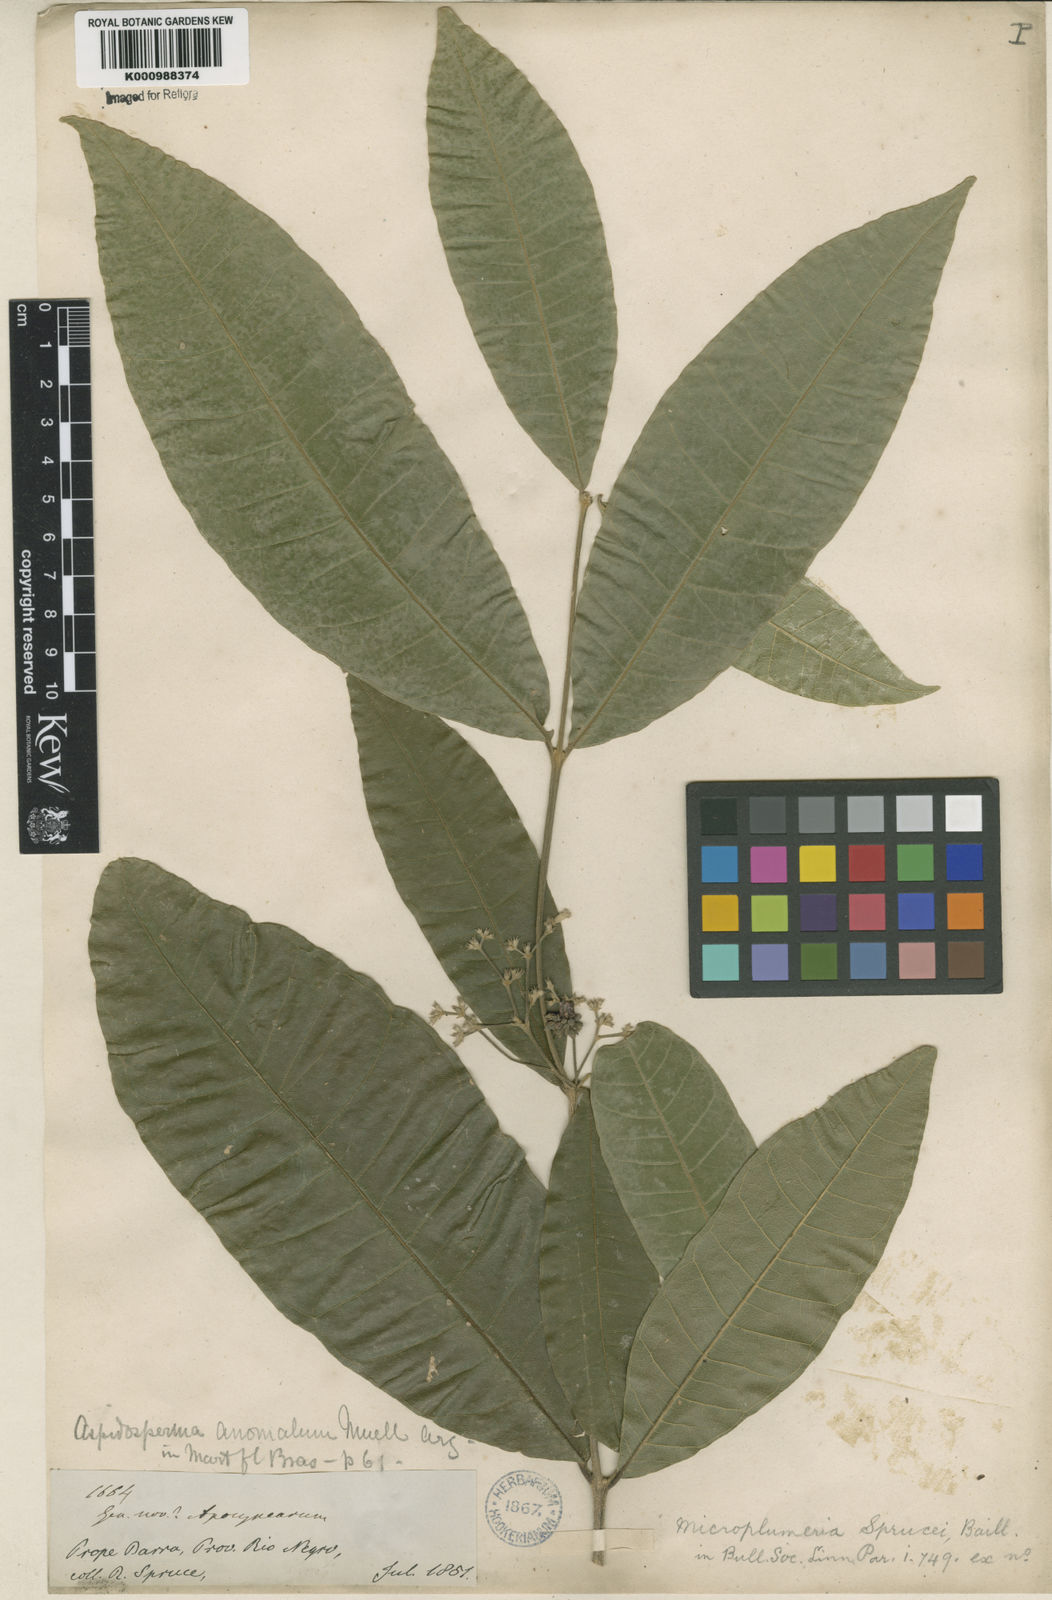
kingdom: Plantae
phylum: Tracheophyta
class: Magnoliopsida
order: Gentianales
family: Apocynaceae
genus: Microplumeria
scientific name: Microplumeria
